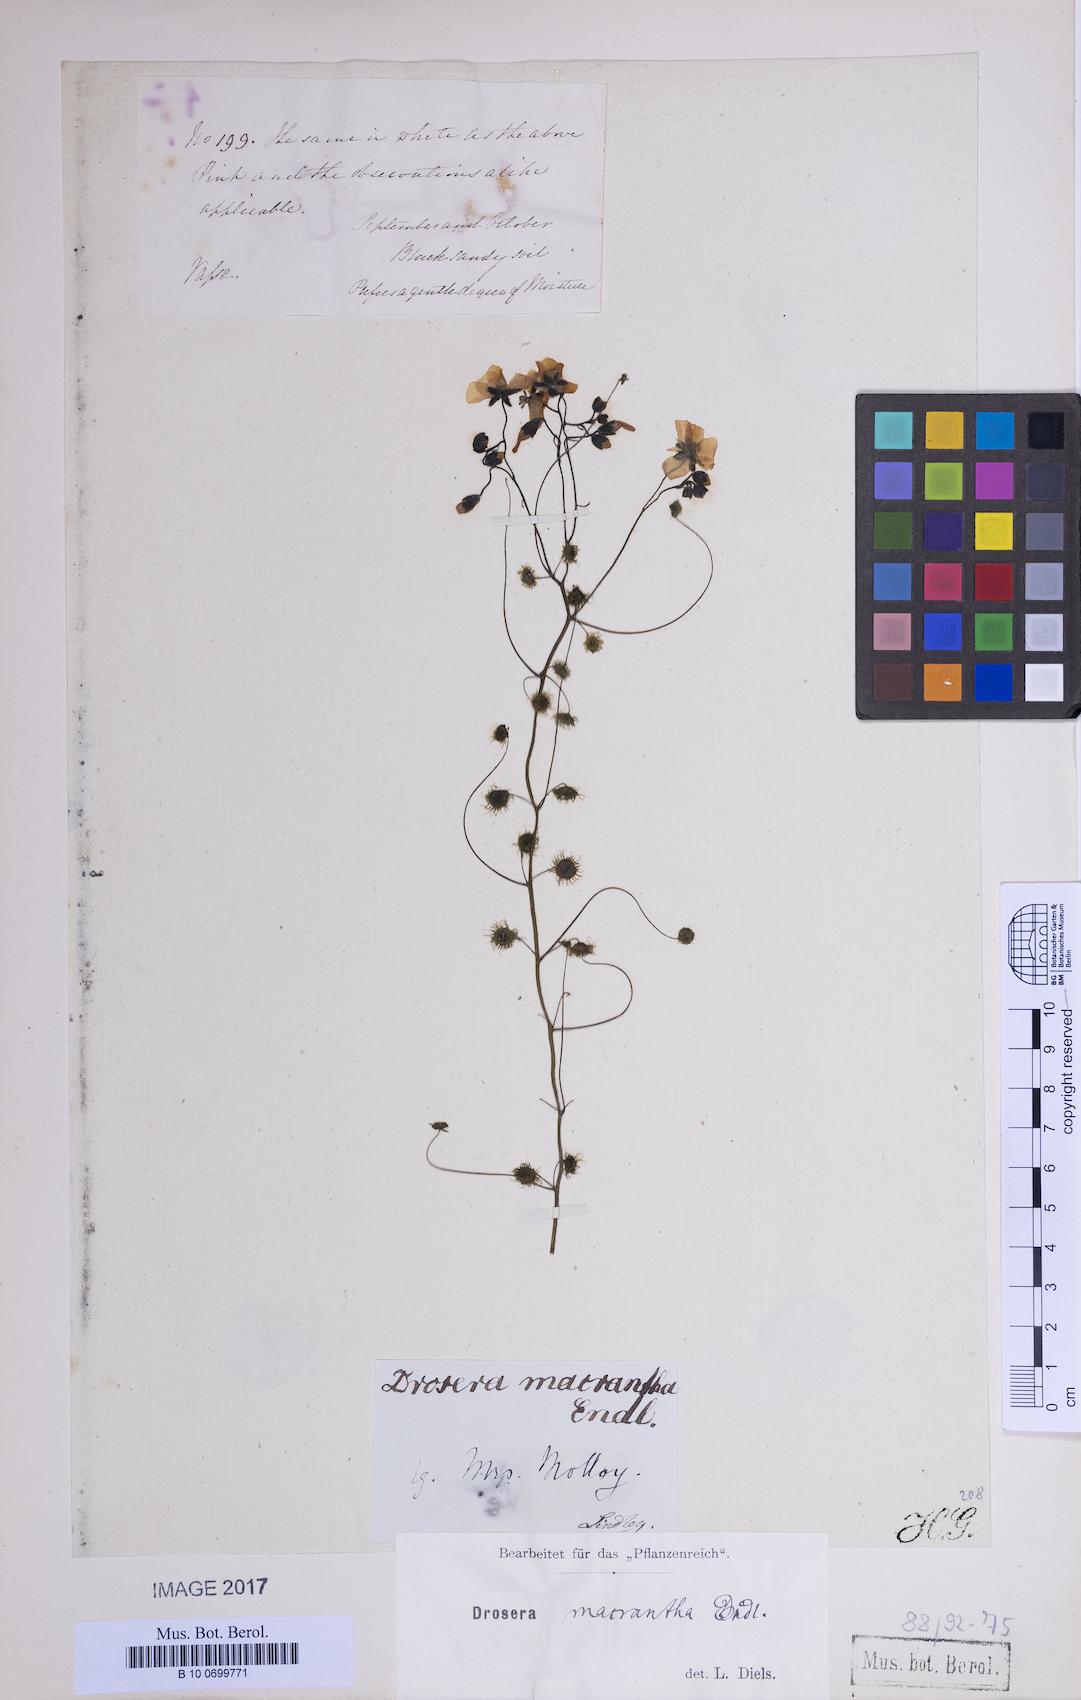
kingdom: Plantae
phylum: Tracheophyta
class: Magnoliopsida
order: Caryophyllales
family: Droseraceae
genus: Drosera
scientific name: Drosera macrantha
